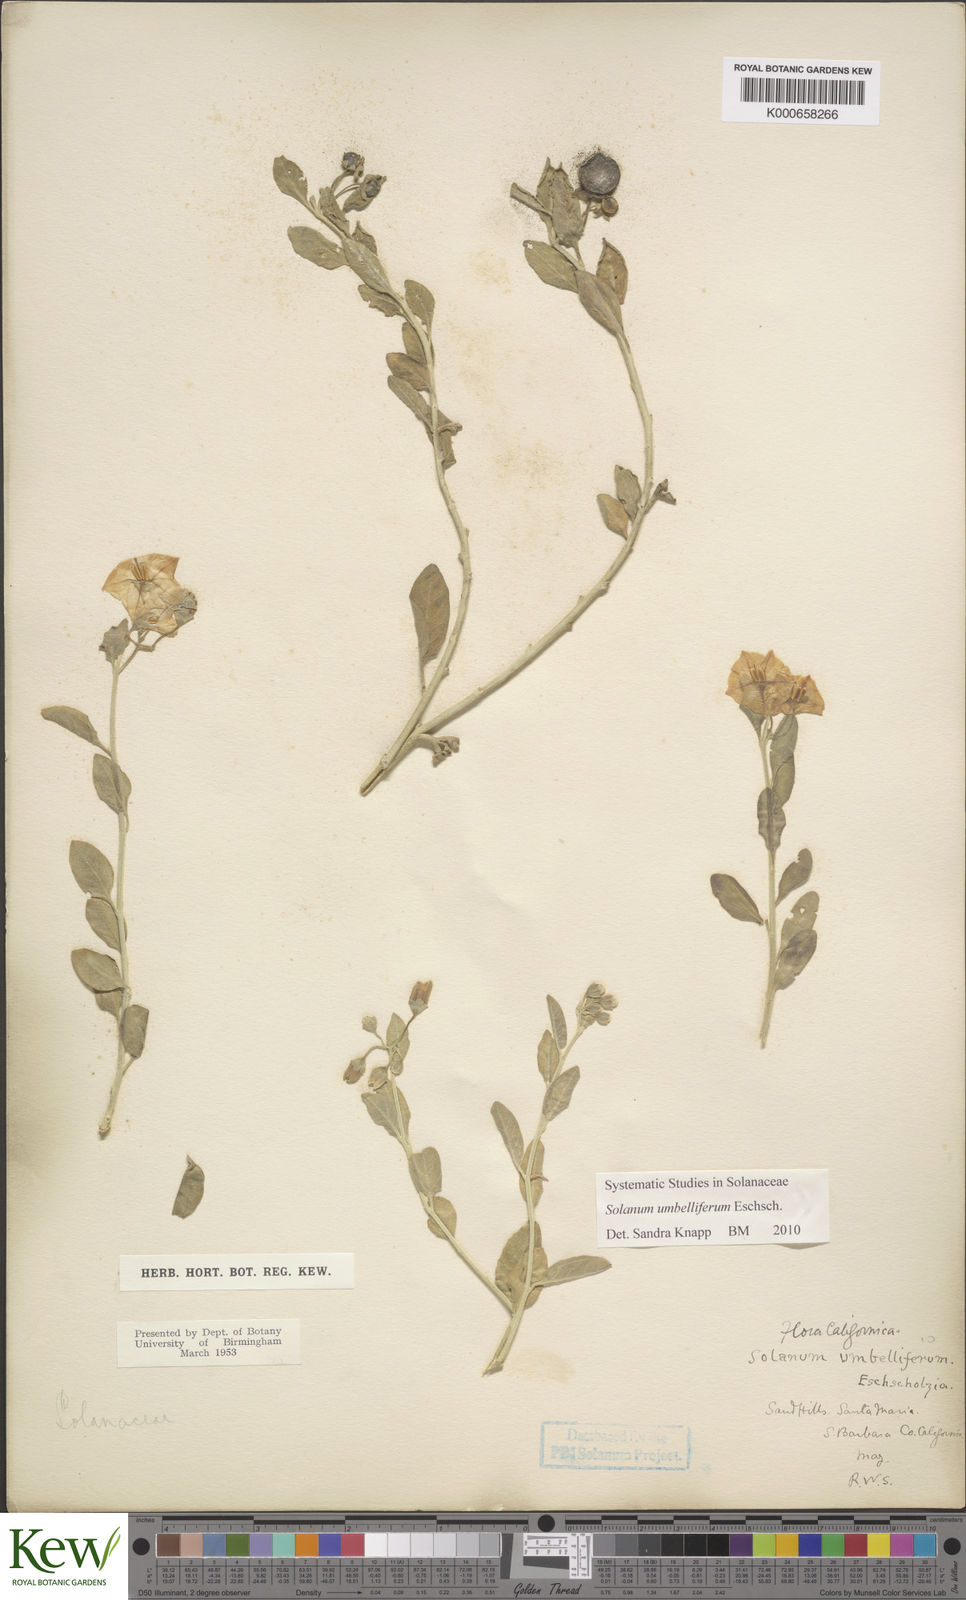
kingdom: Plantae
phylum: Tracheophyta
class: Magnoliopsida
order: Solanales
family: Solanaceae
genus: Solanum
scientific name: Solanum umbelliferum
